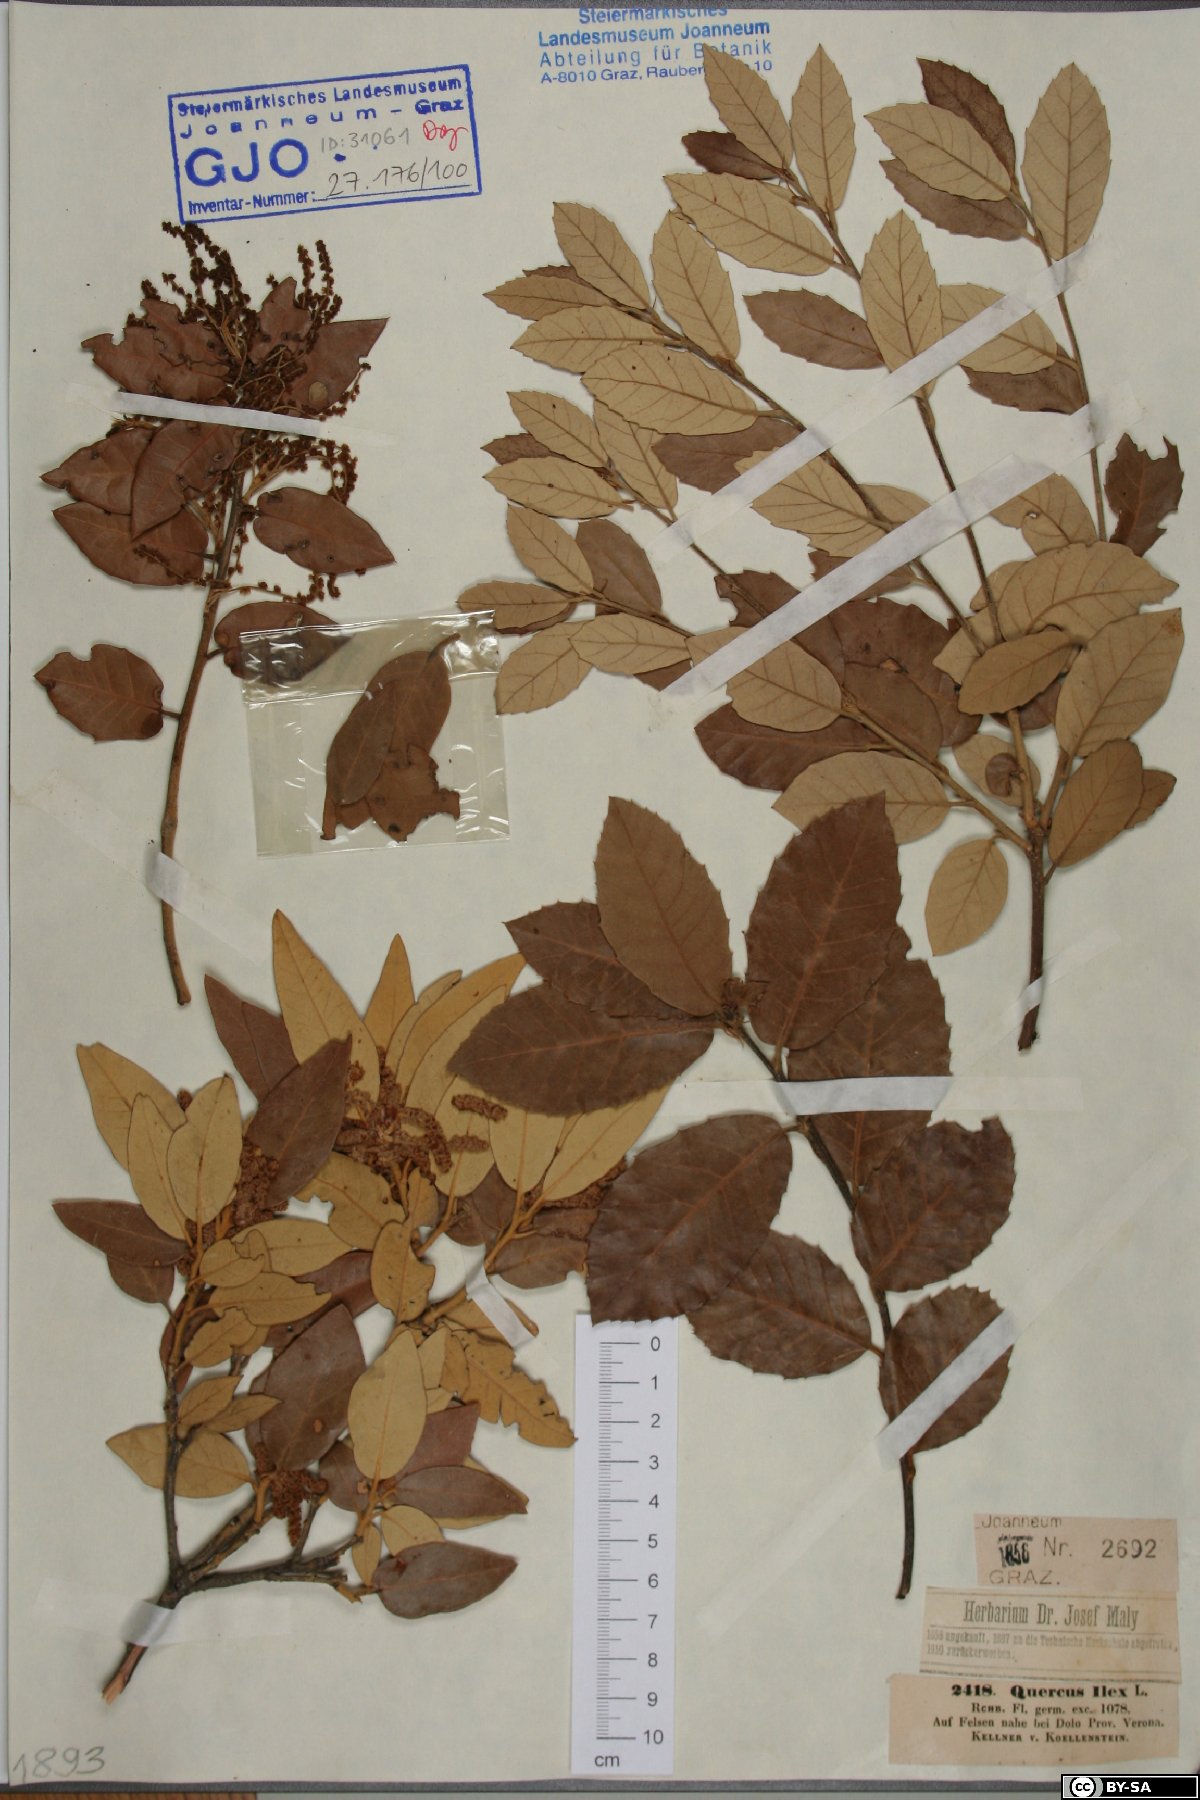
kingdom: Plantae
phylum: Tracheophyta
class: Magnoliopsida
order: Fagales
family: Fagaceae
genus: Quercus
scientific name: Quercus ilex
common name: Evergreen oak
